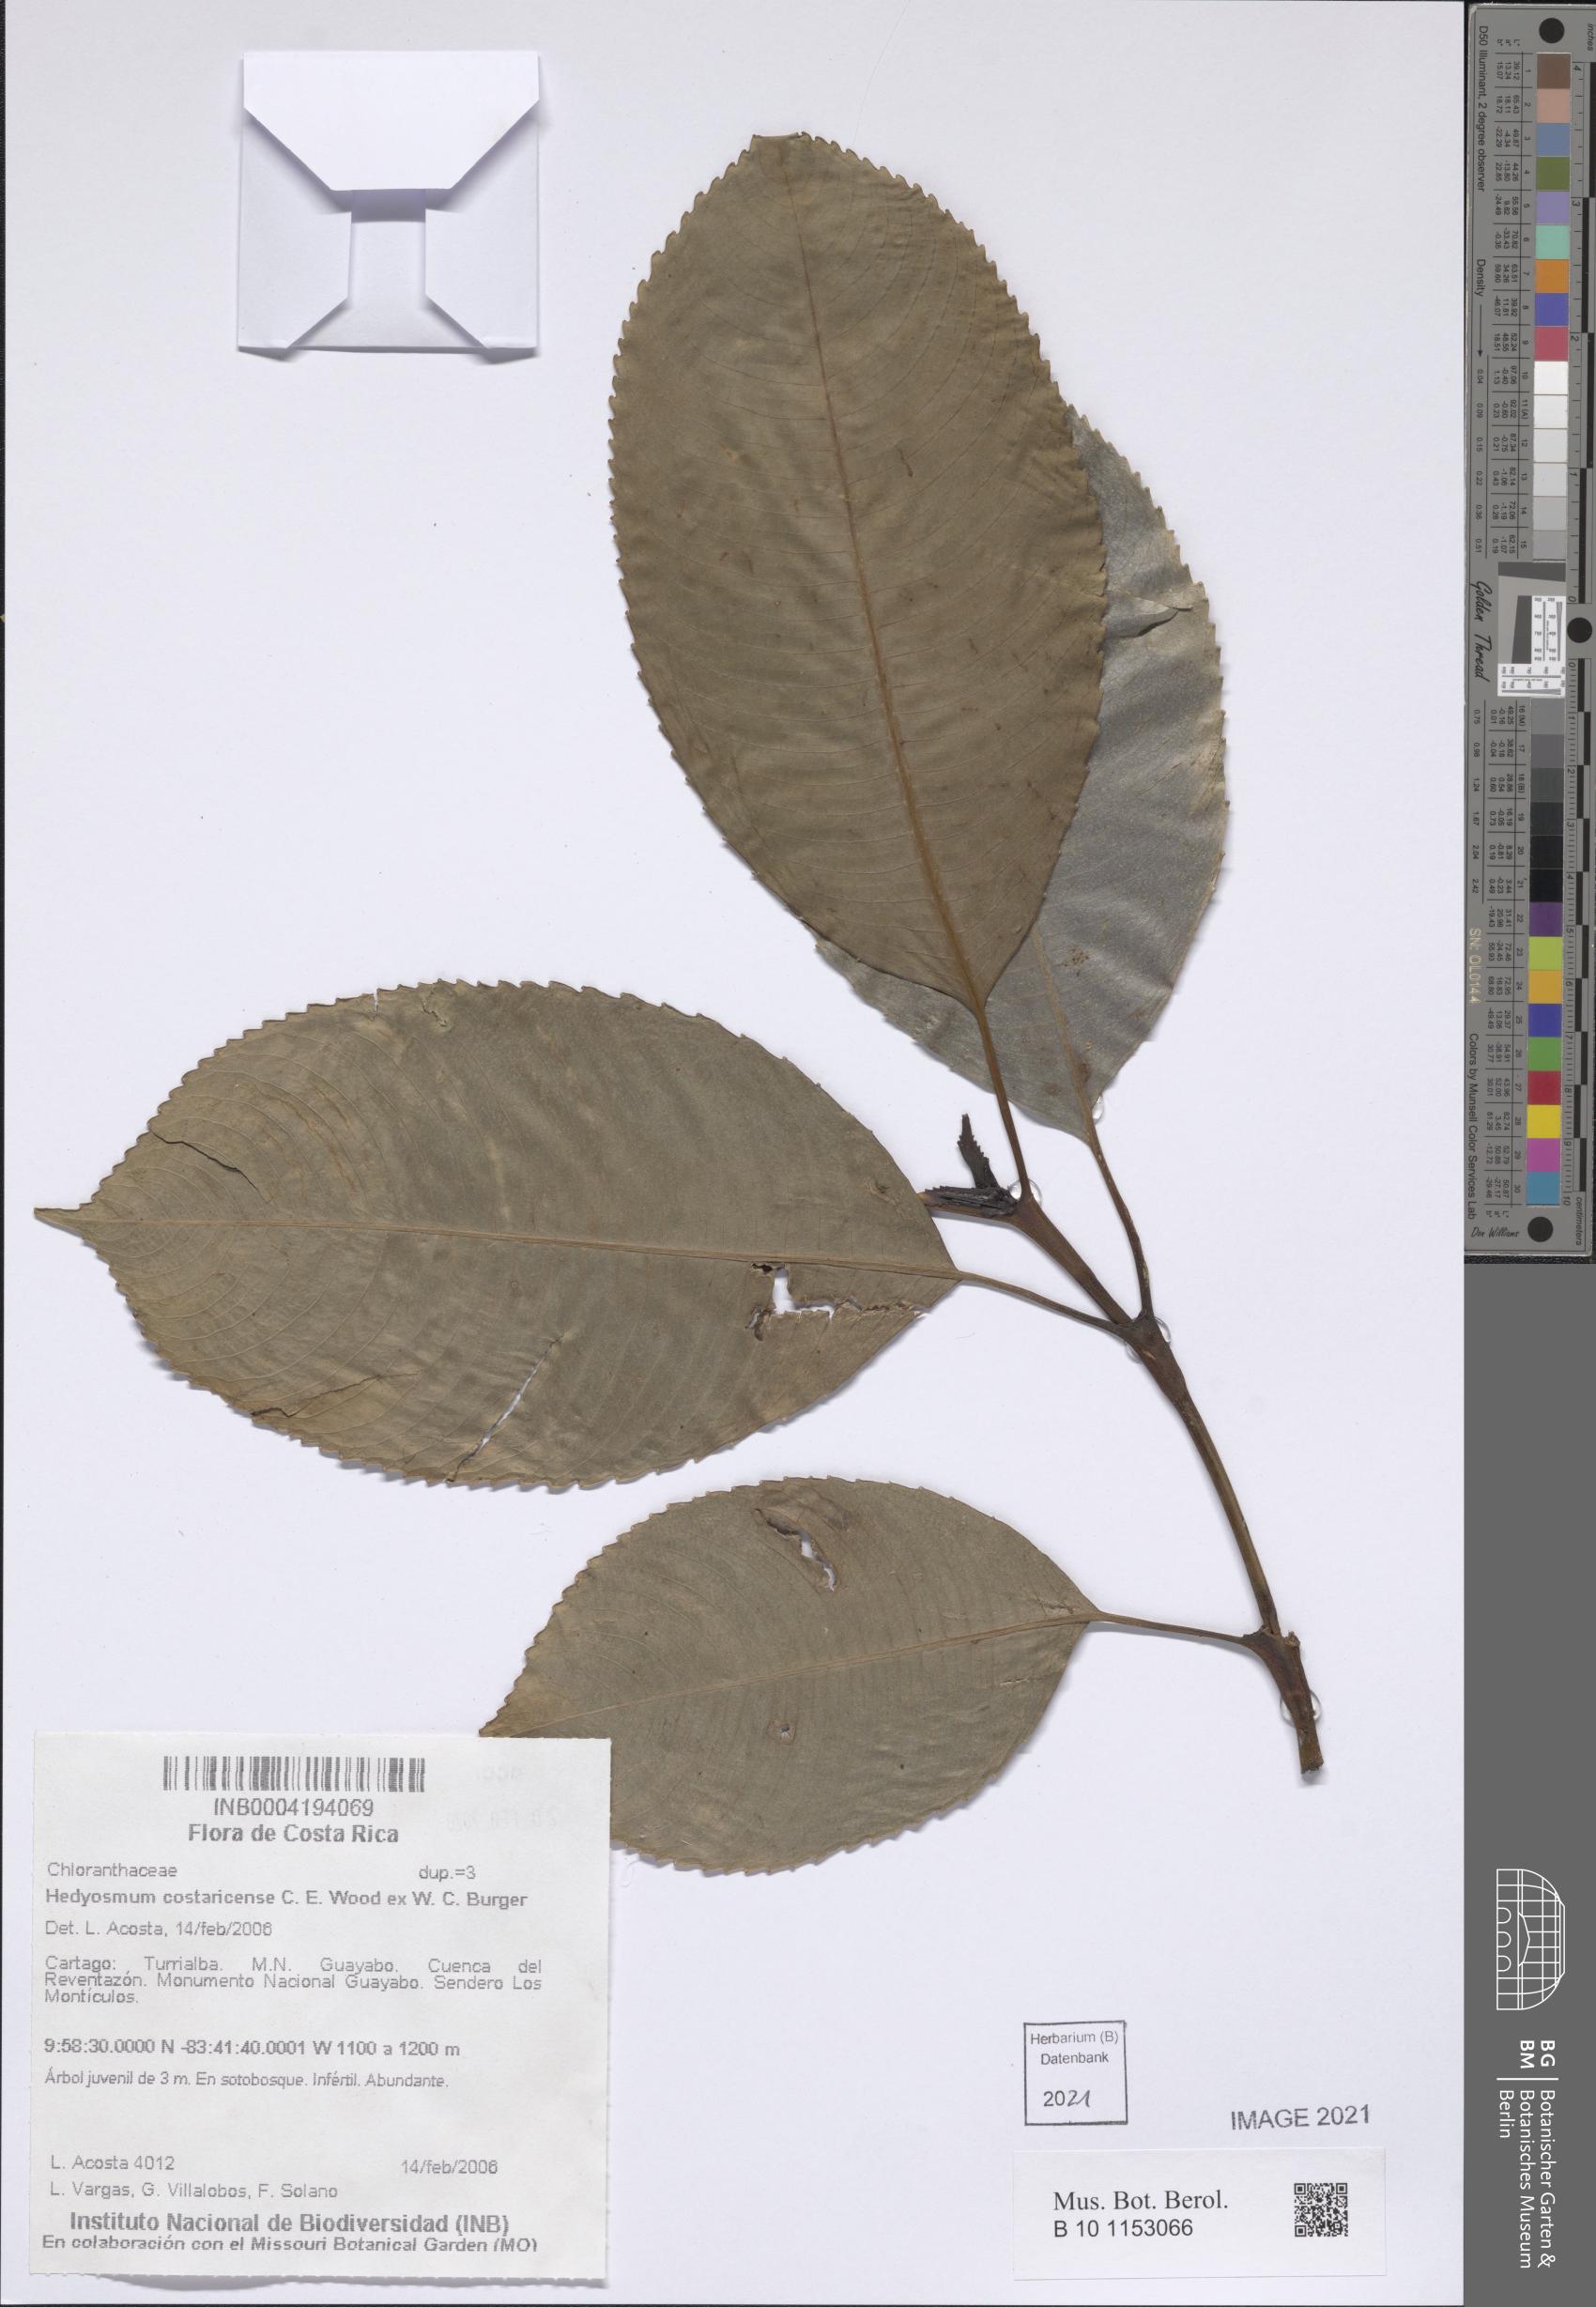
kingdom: Plantae
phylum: Tracheophyta
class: Magnoliopsida
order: Chloranthales
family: Chloranthaceae
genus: Hedyosmum
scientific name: Hedyosmum costaricense
